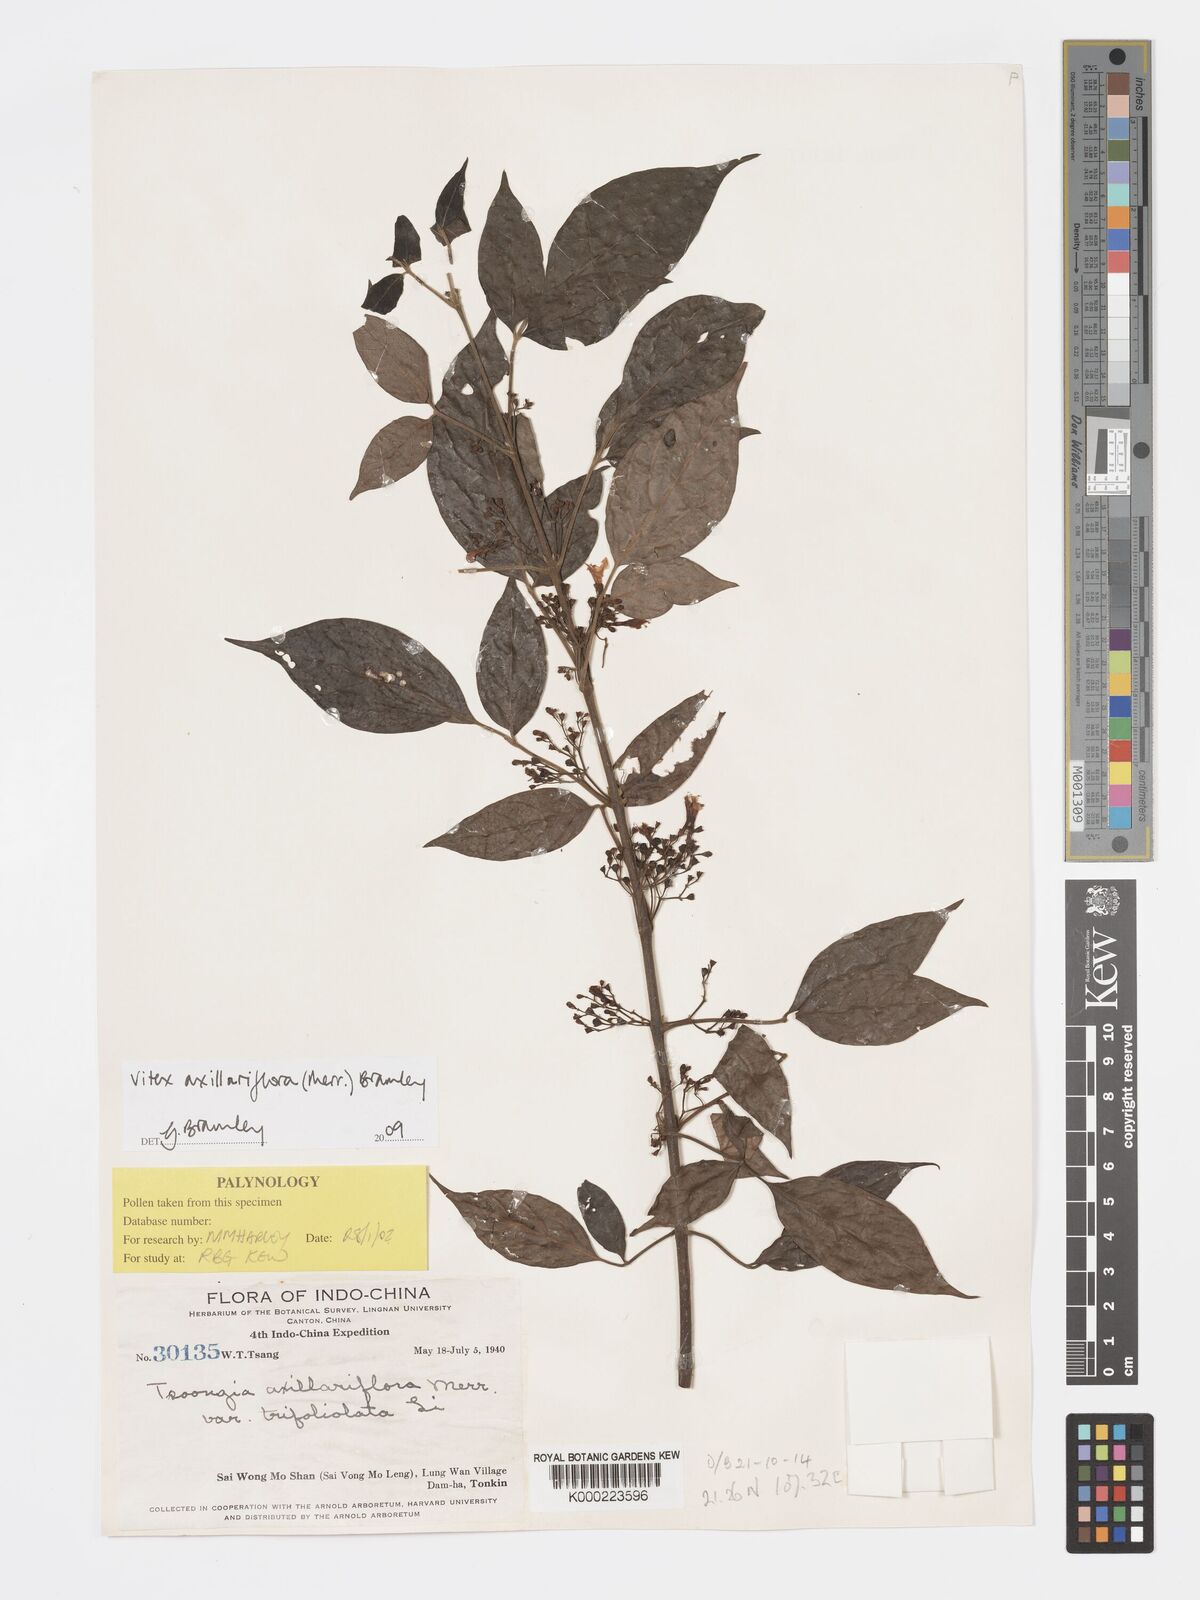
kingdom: Plantae
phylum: Tracheophyta
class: Magnoliopsida
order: Lamiales
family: Lamiaceae
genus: Vitex
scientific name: Vitex axillariflora
